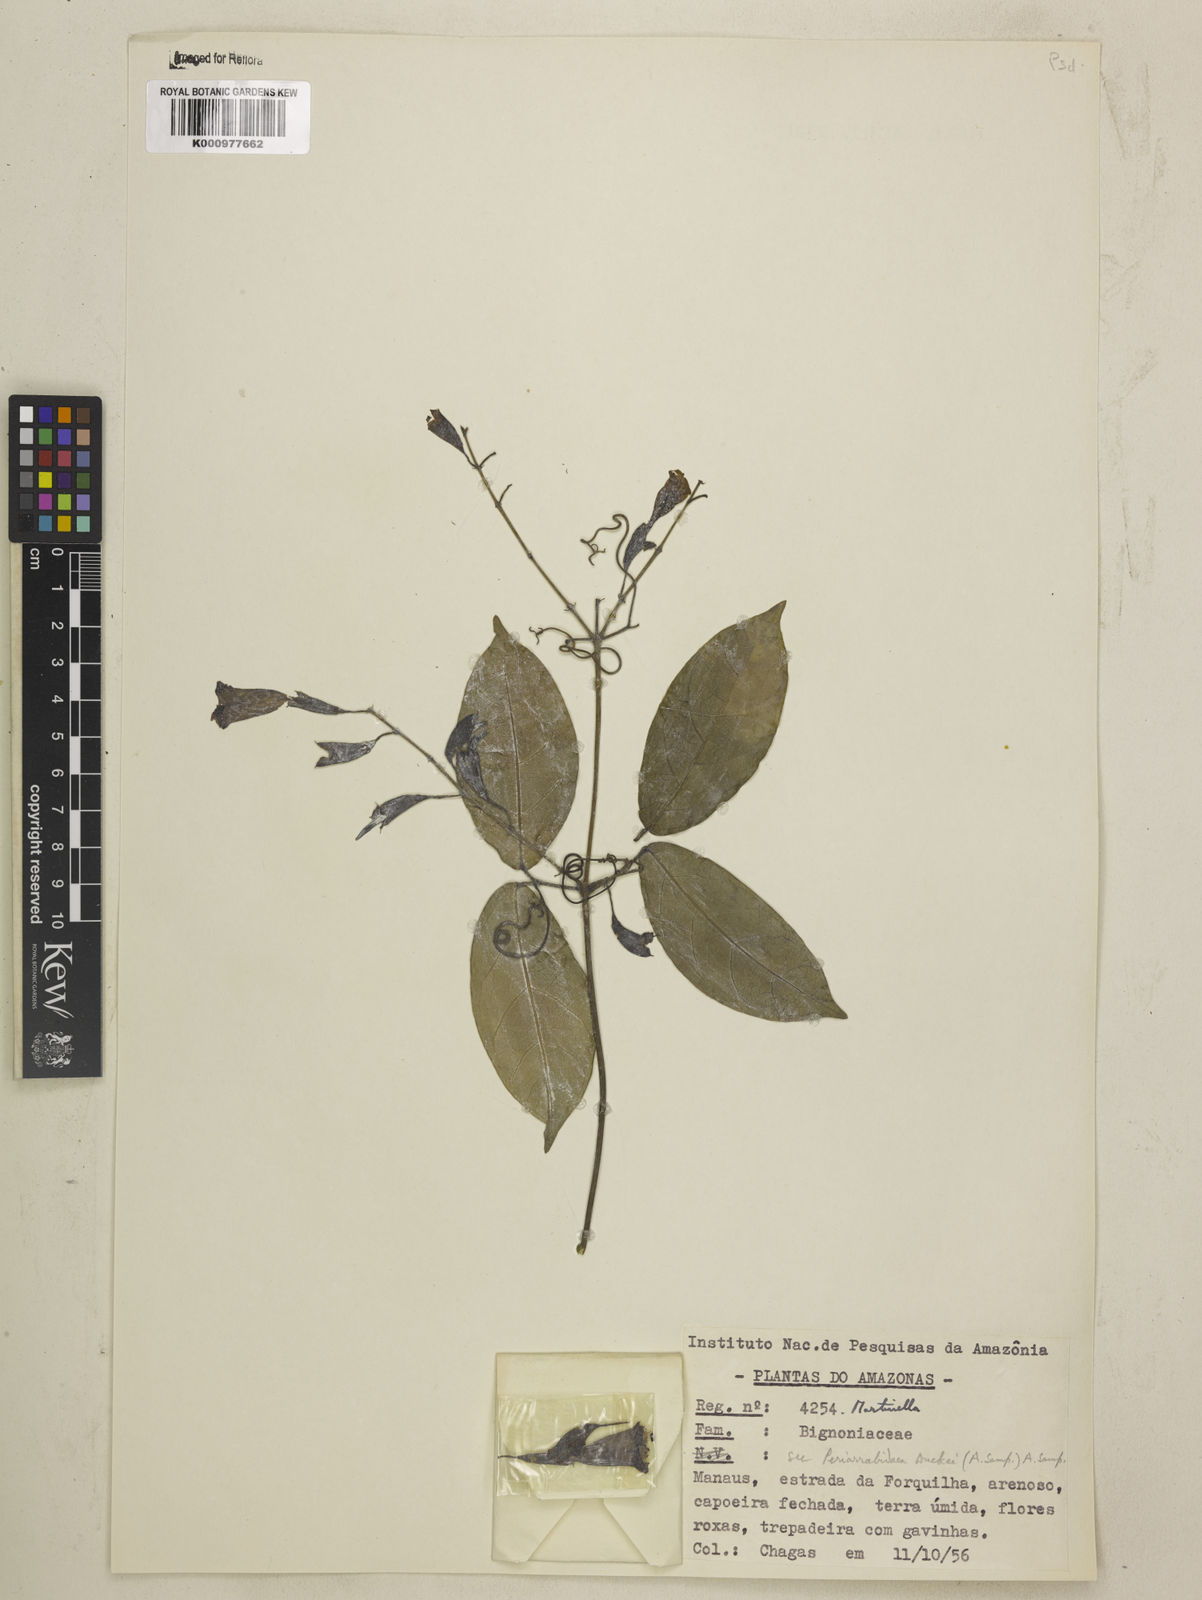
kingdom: Animalia
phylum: Arthropoda
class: Insecta
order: Coleoptera
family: Chrysomelidae
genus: Martinella
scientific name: Martinella obovata
